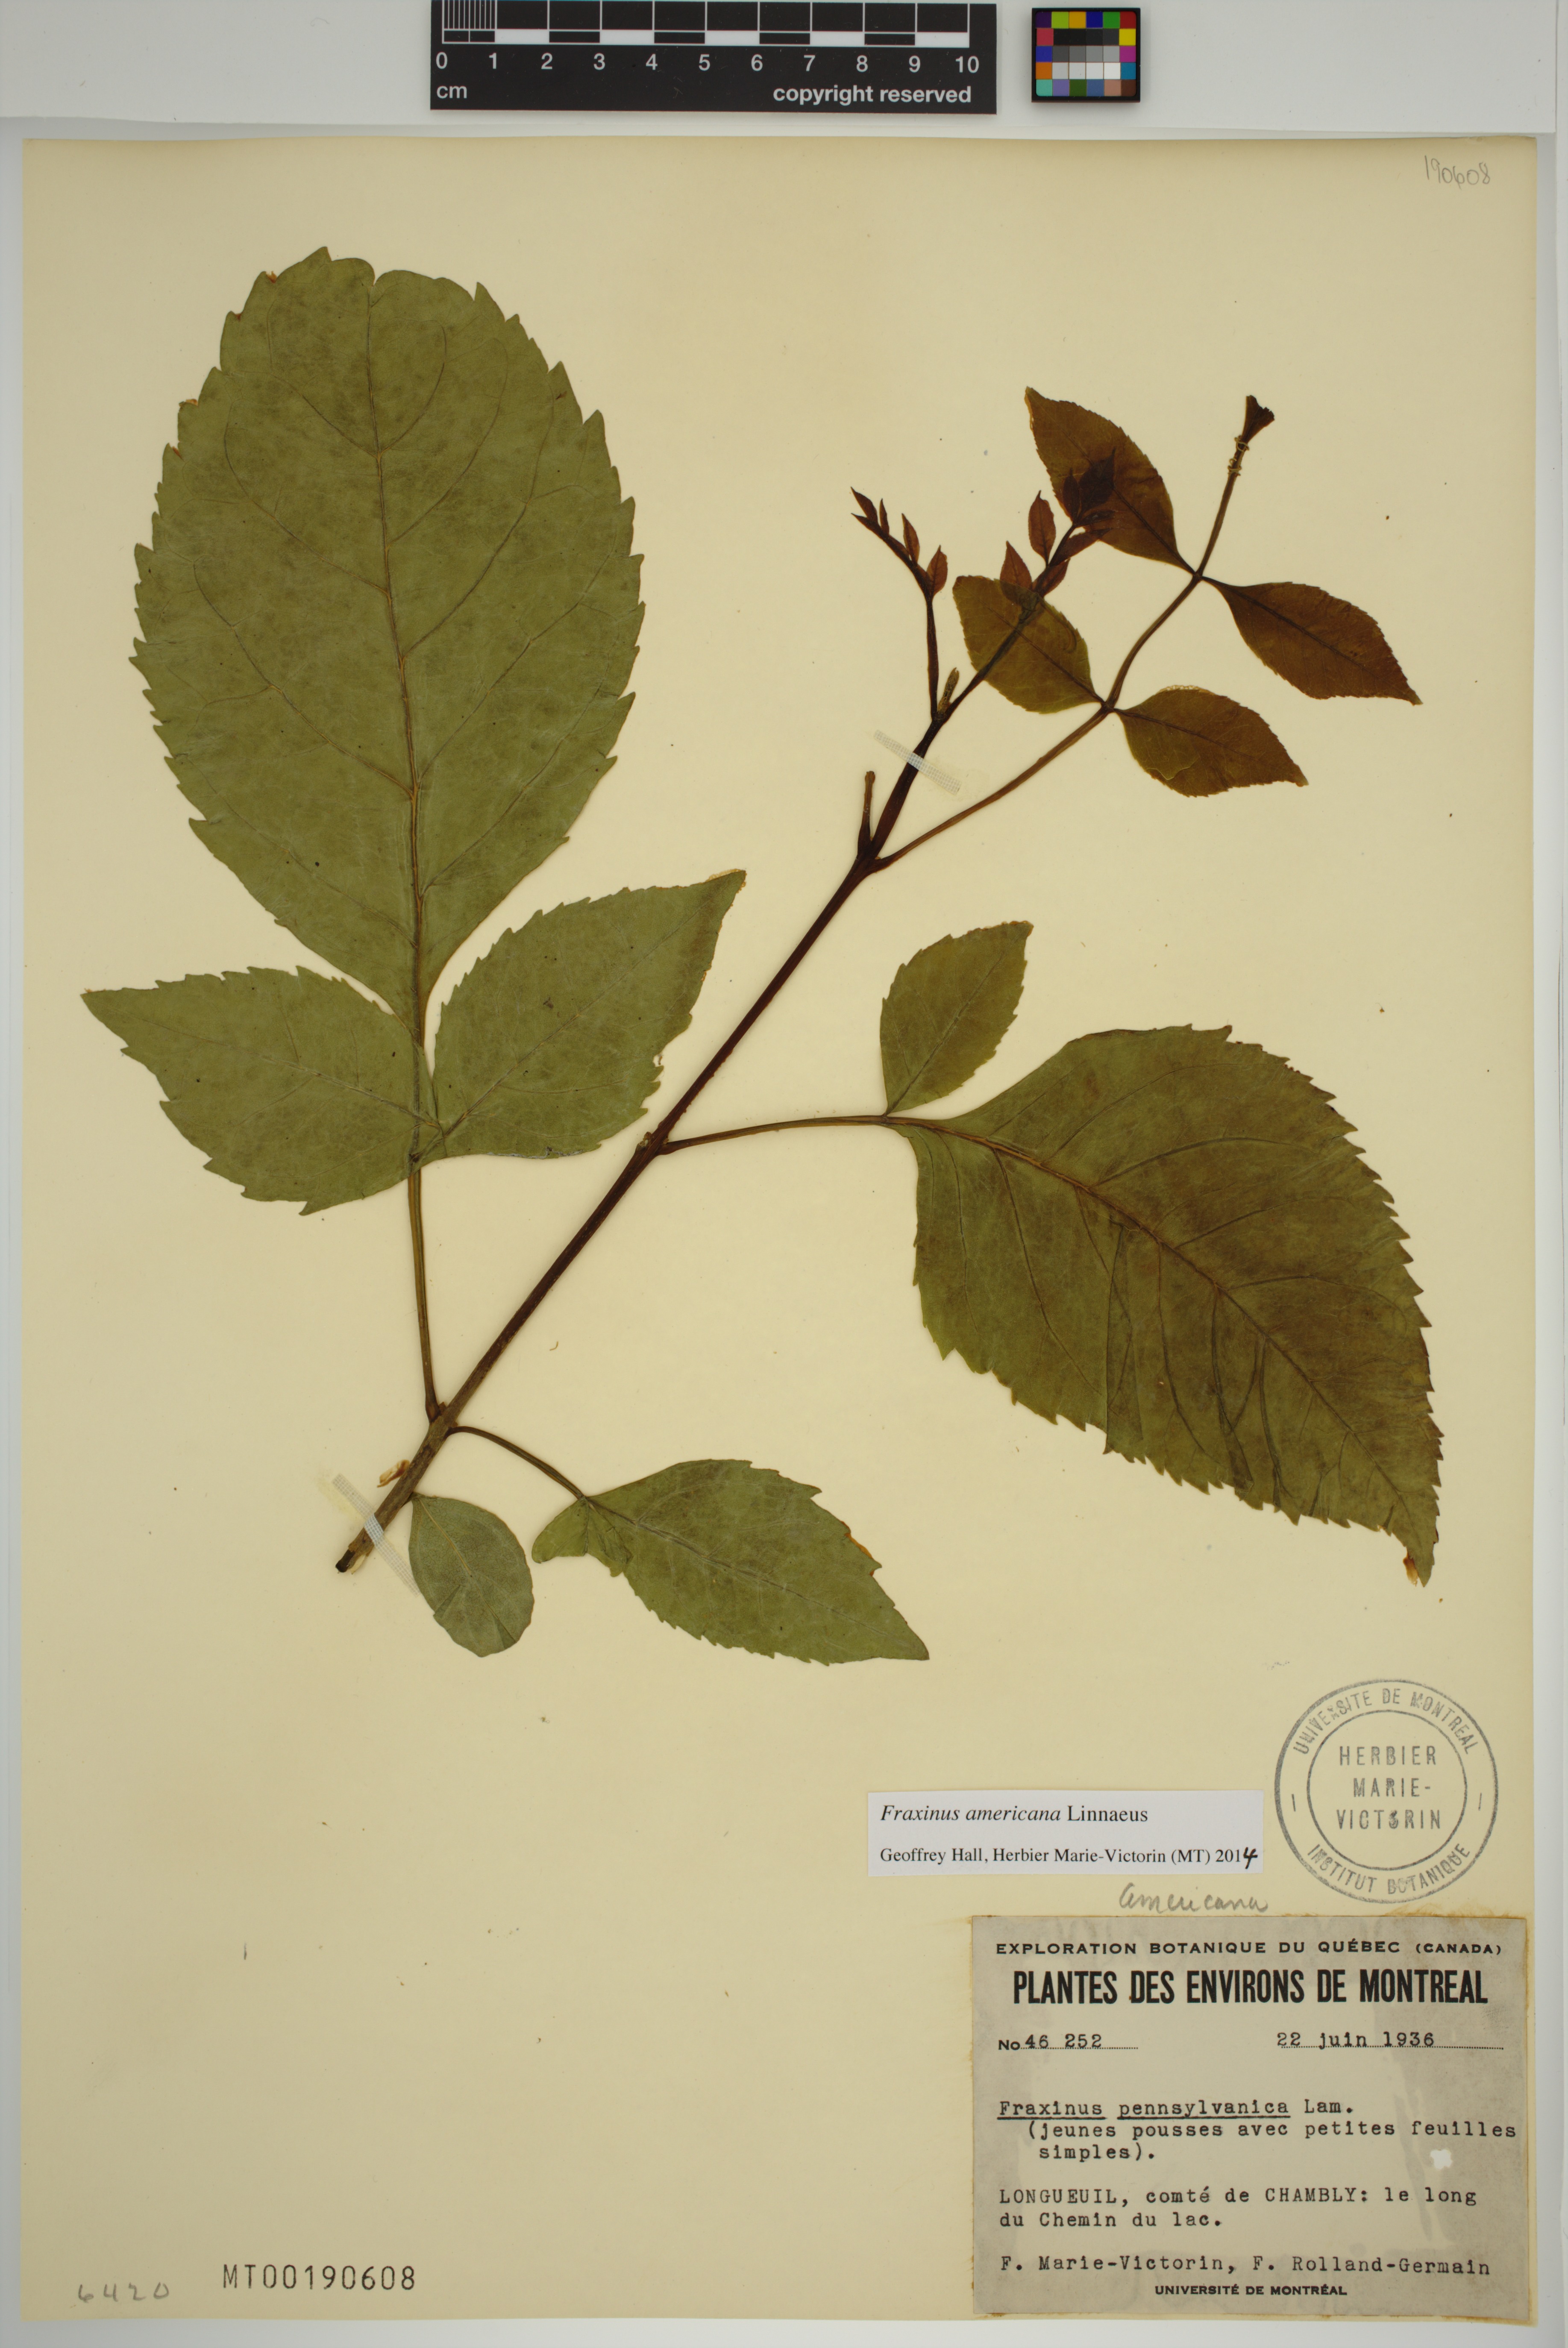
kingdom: Plantae
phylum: Tracheophyta
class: Magnoliopsida
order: Lamiales
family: Oleaceae
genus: Fraxinus
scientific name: Fraxinus pennsylvanica
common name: Green ash
